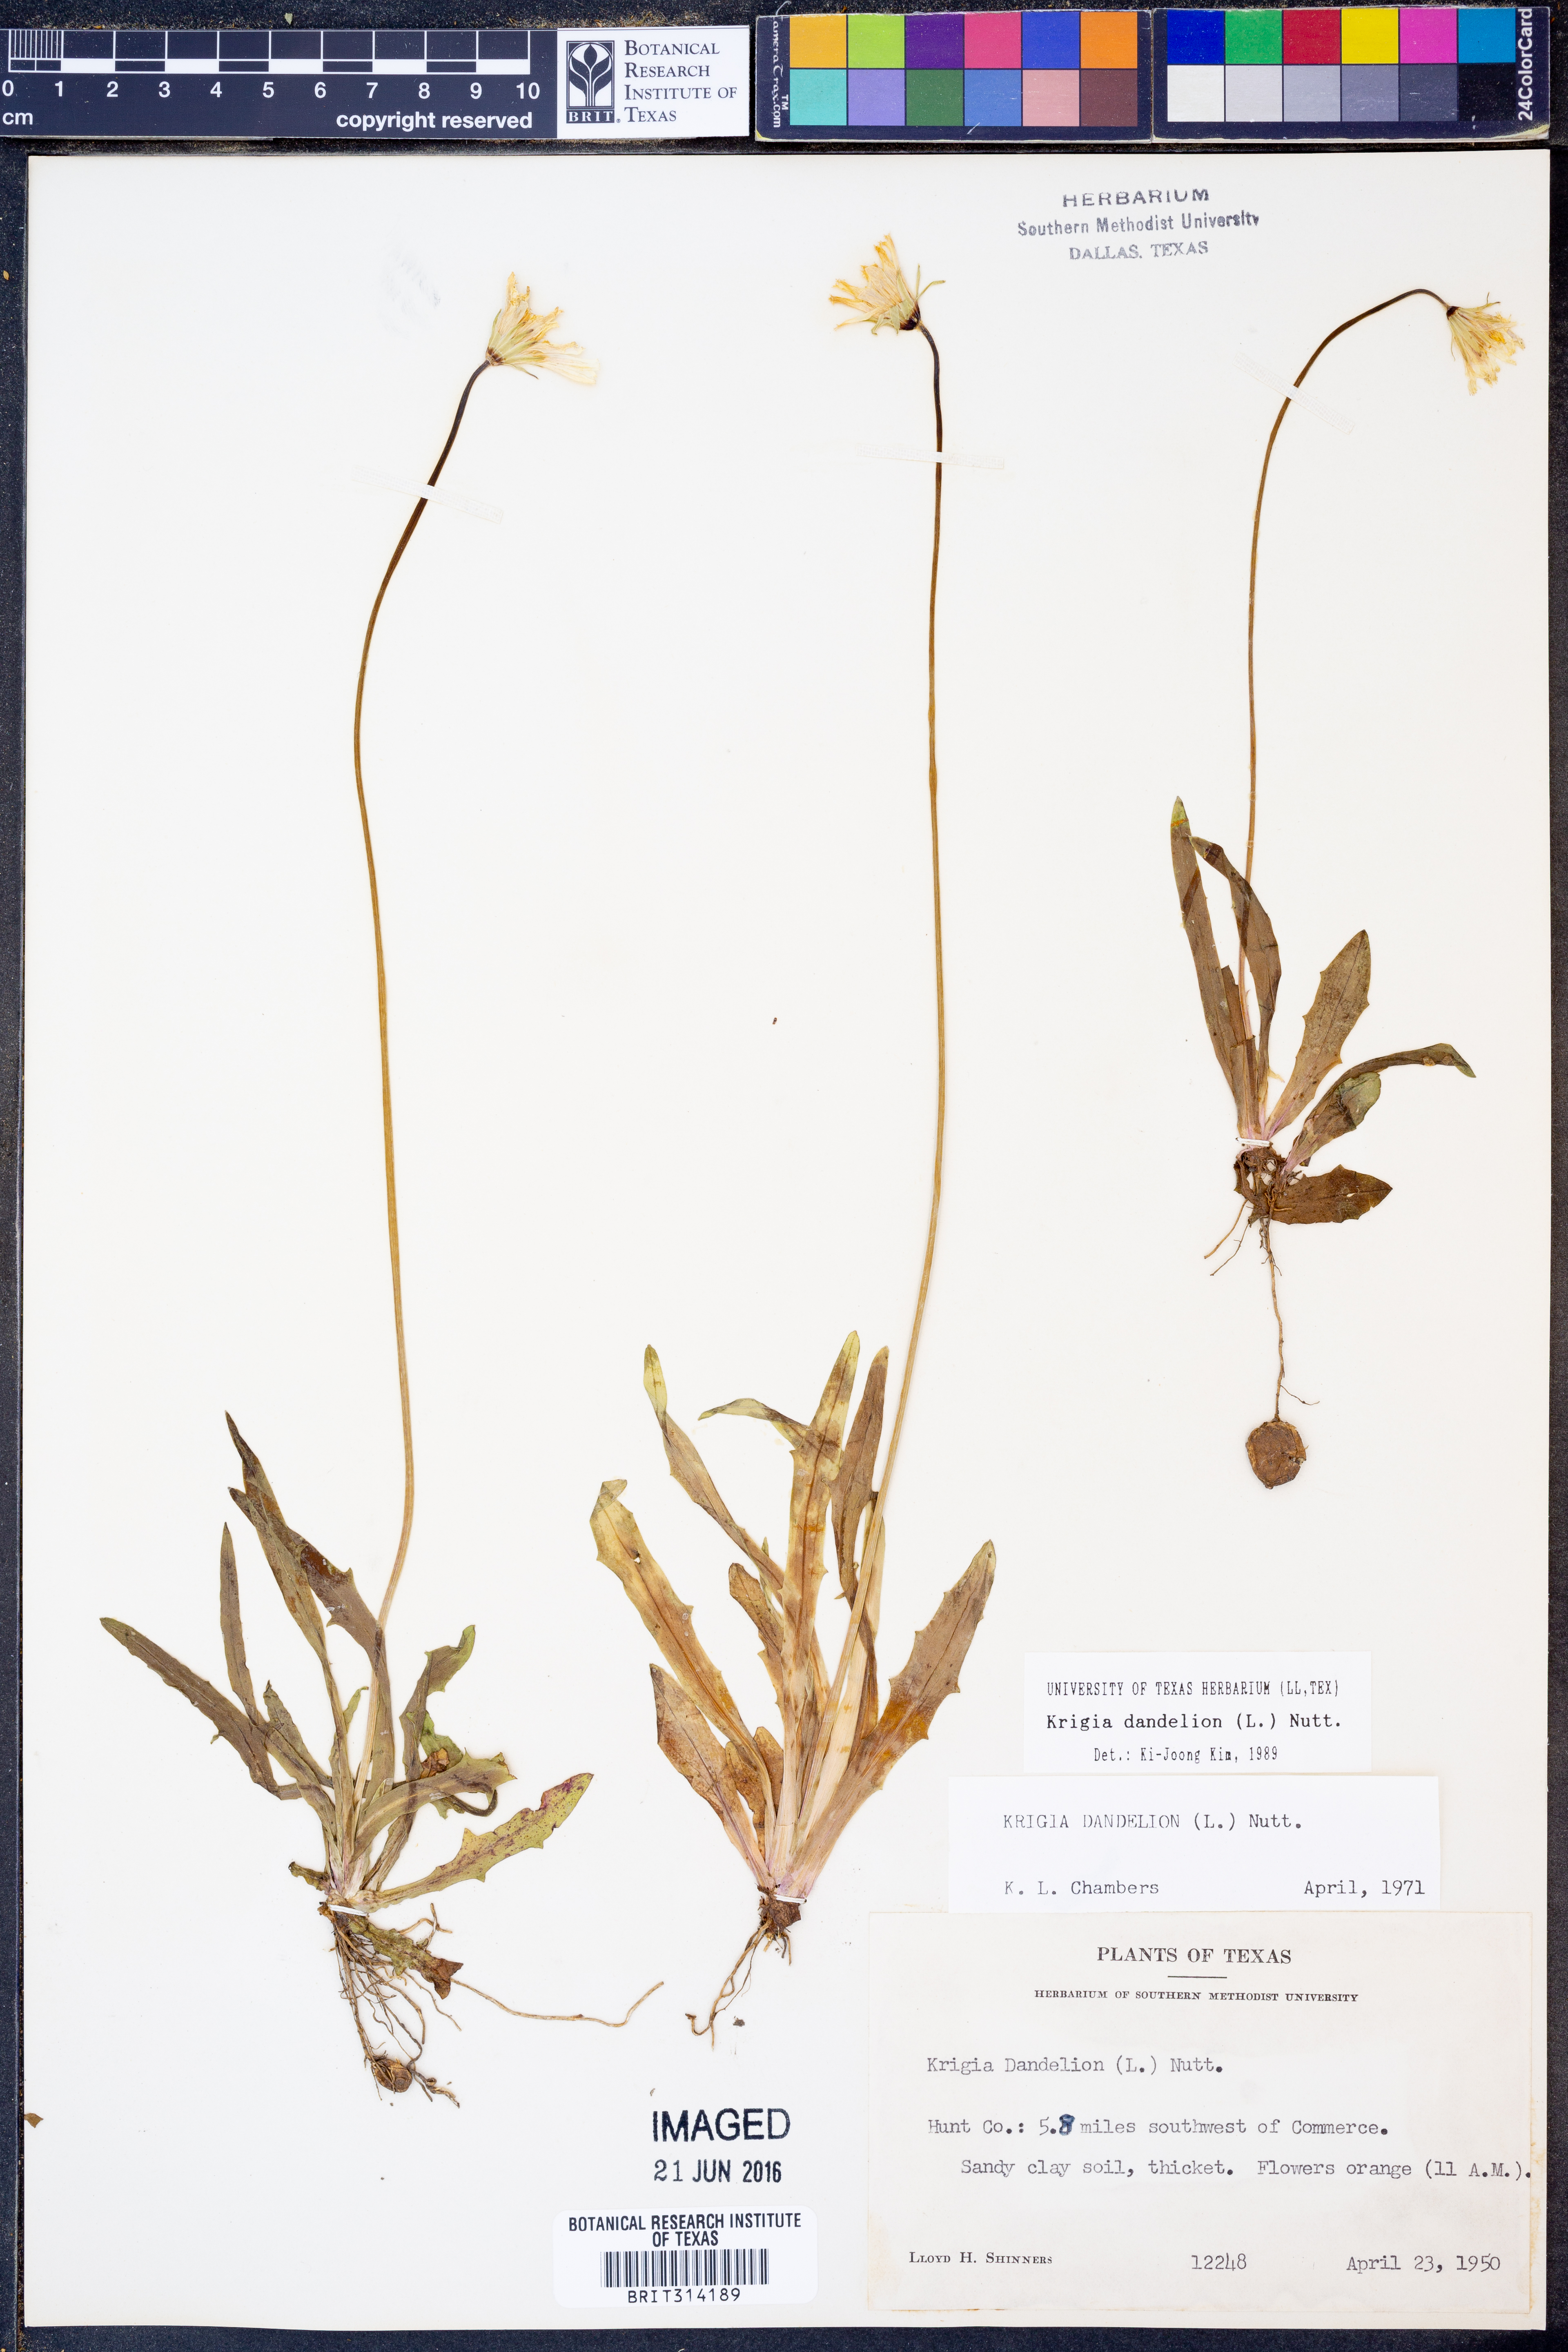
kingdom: Plantae
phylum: Tracheophyta
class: Magnoliopsida
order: Asterales
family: Asteraceae
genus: Krigia
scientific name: Krigia dandelion
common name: Colonial dwarf-dandelion
